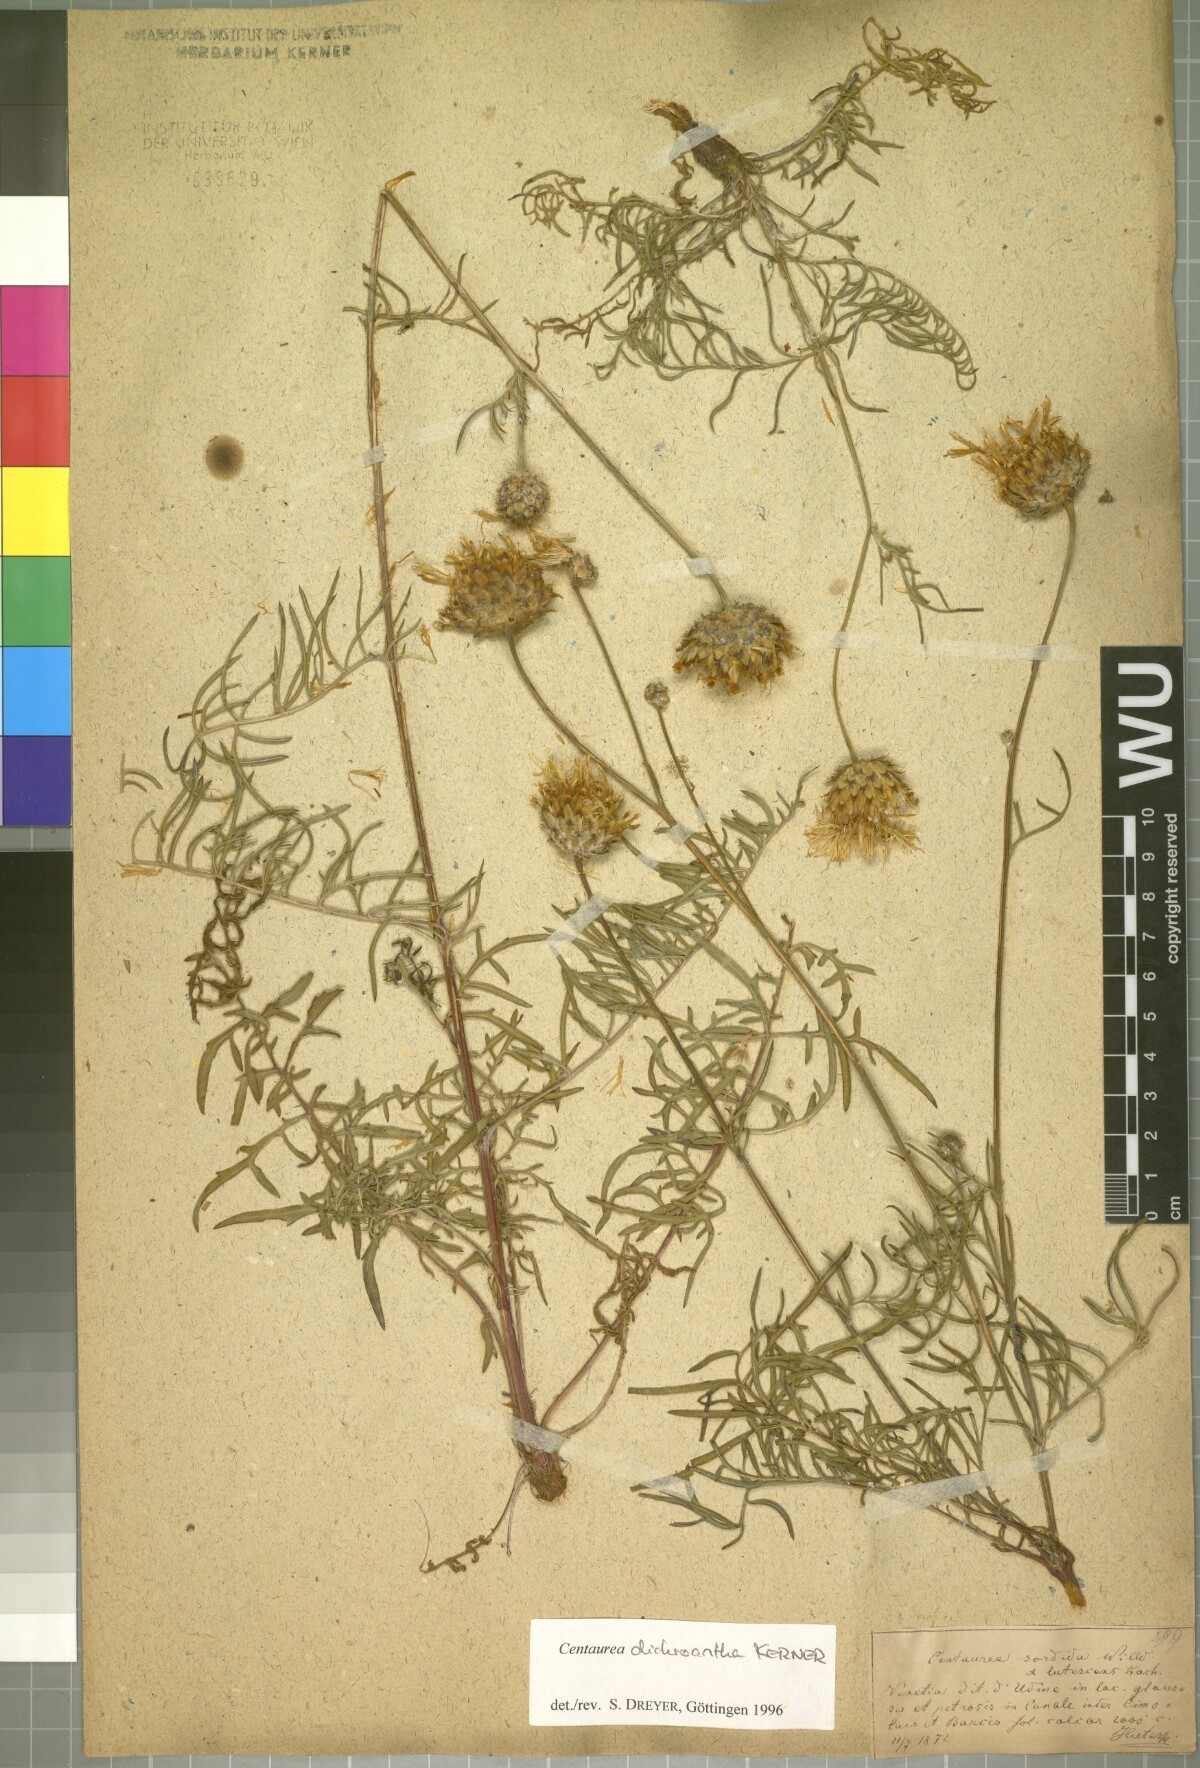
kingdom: Plantae
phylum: Tracheophyta
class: Magnoliopsida
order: Asterales
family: Asteraceae
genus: Centaurea
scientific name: Centaurea dichroantha
